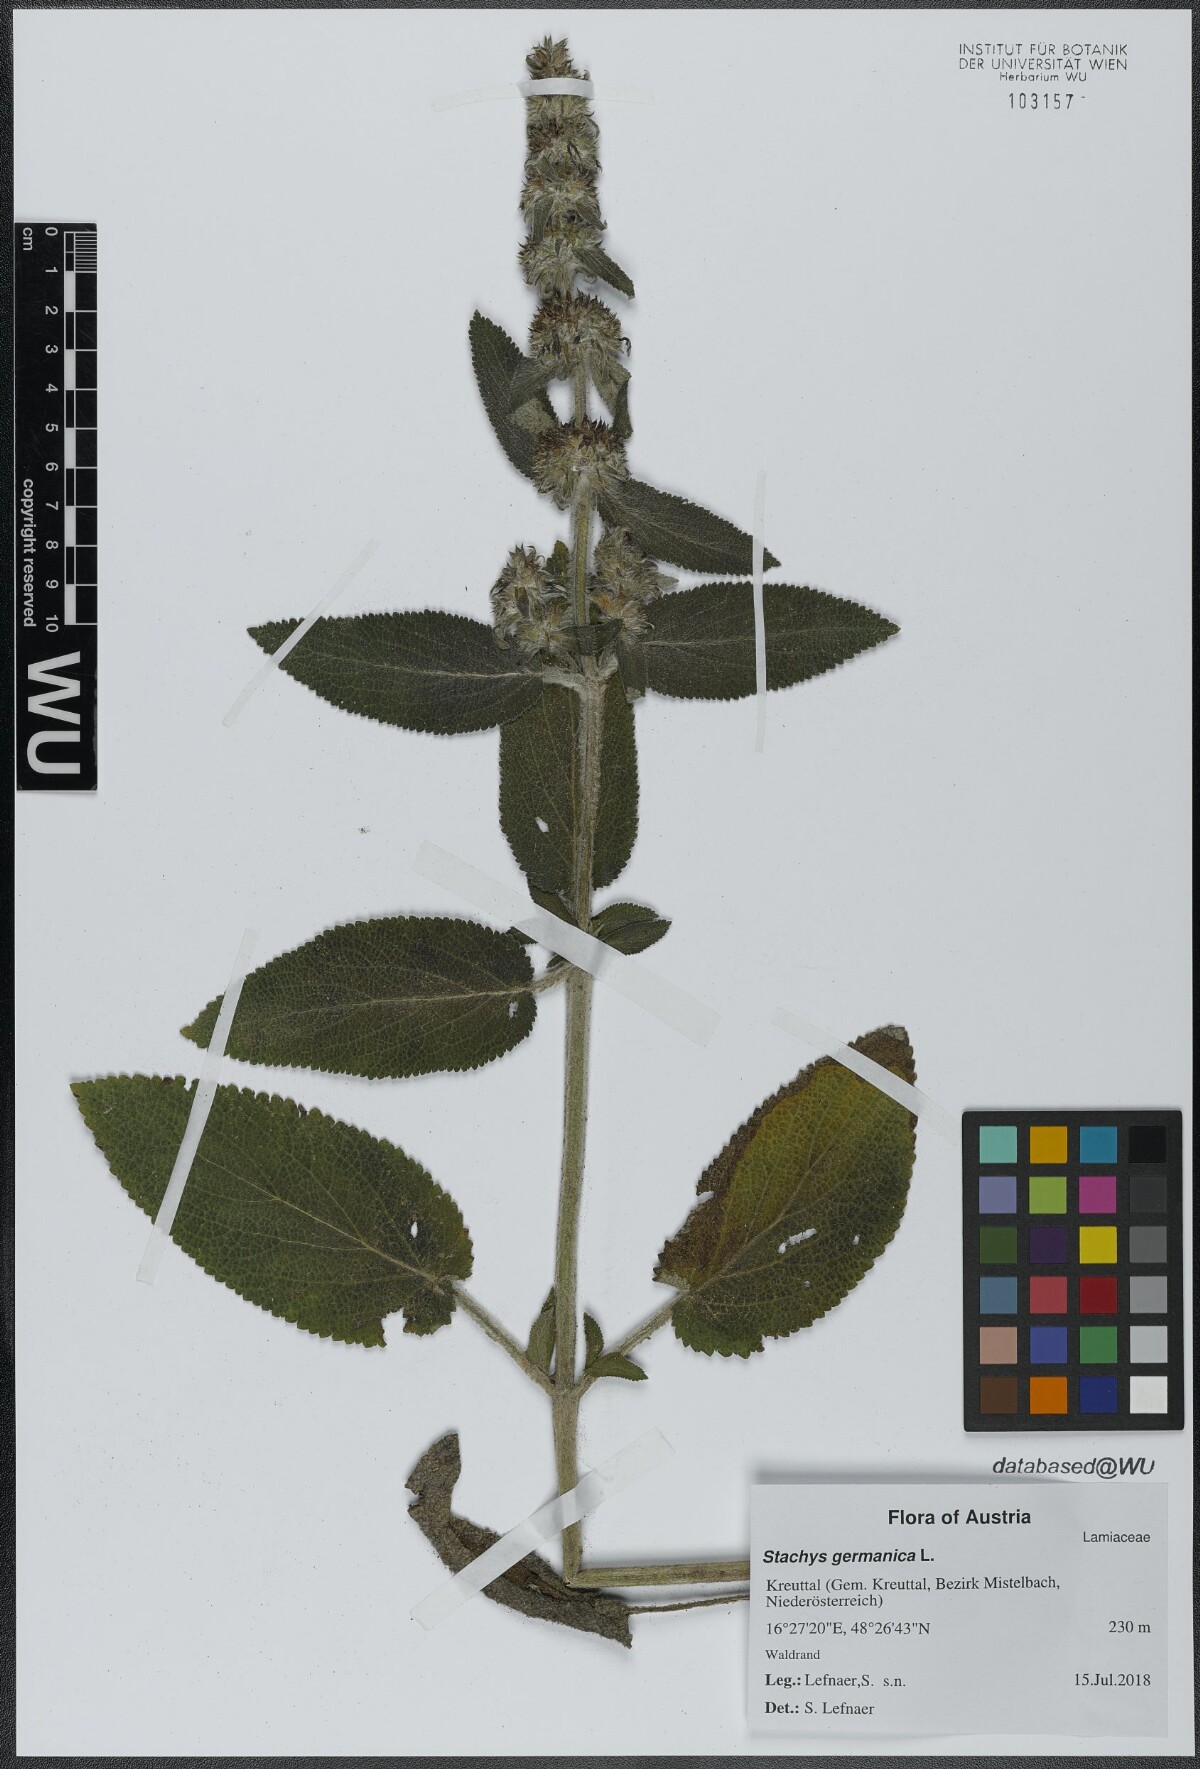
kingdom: Plantae
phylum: Tracheophyta
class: Magnoliopsida
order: Lamiales
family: Lamiaceae
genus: Stachys
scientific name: Stachys germanica
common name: Downy woundwort
